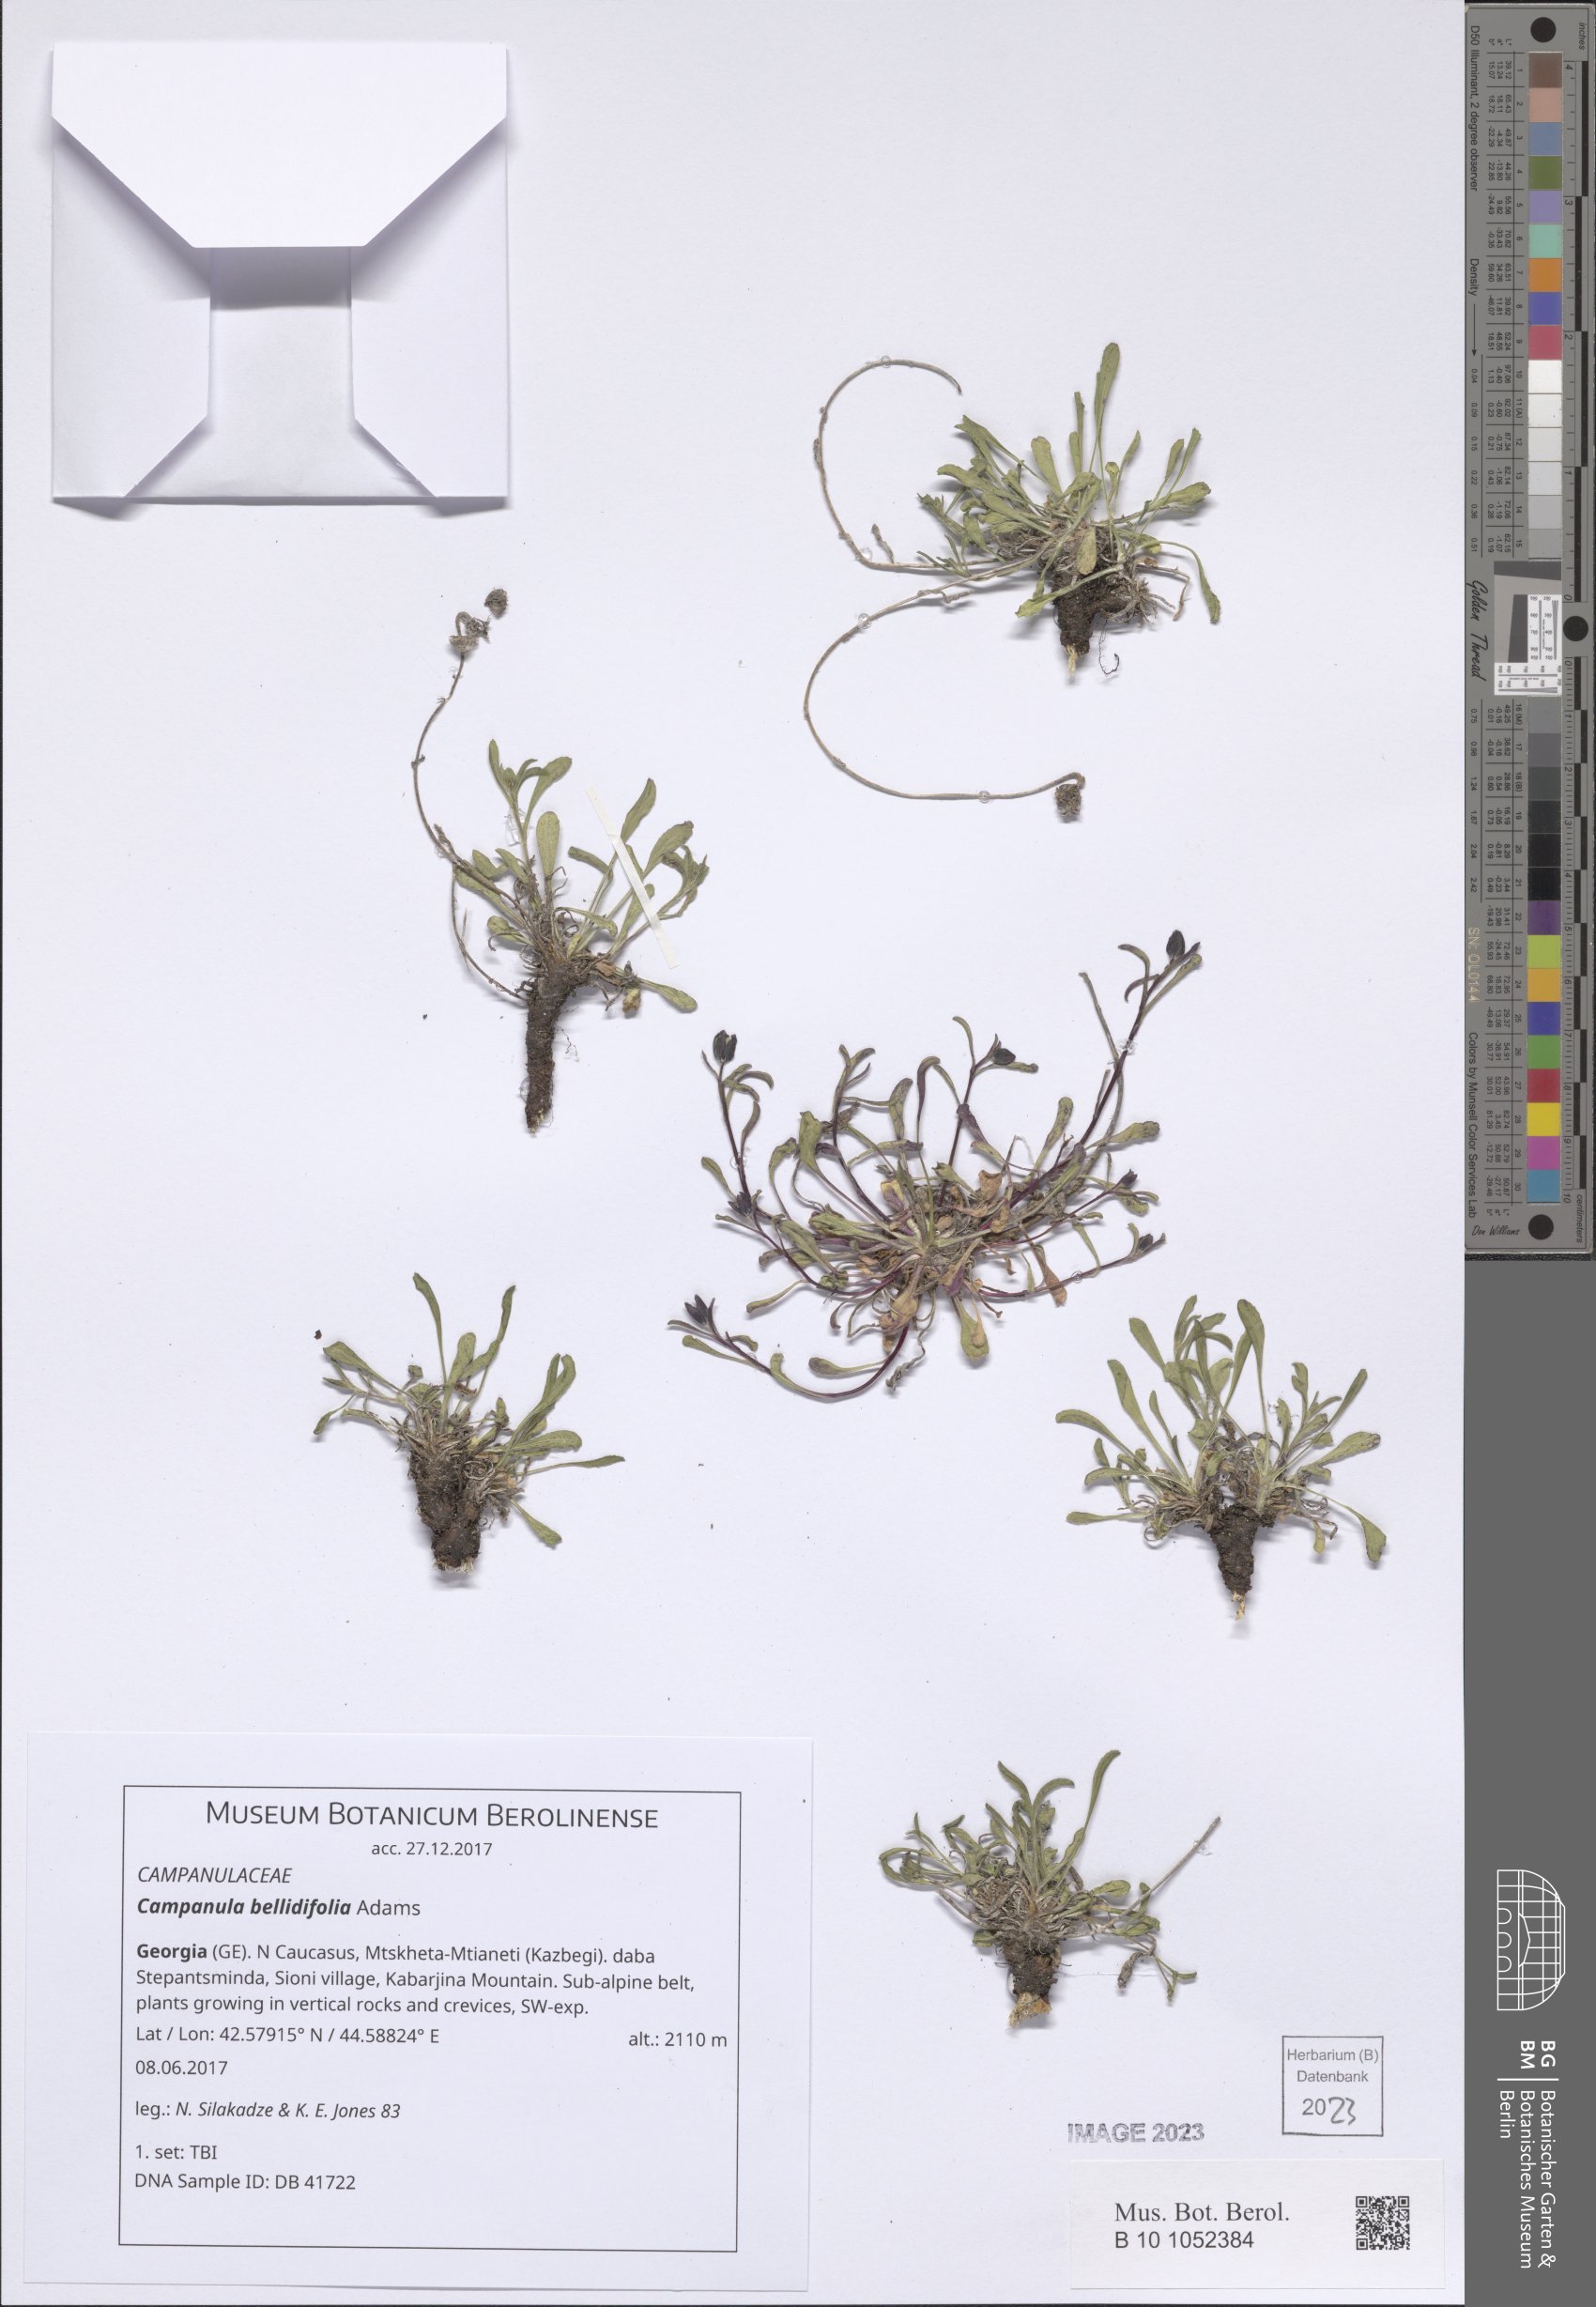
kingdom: Plantae
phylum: Tracheophyta
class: Magnoliopsida
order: Asterales
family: Campanulaceae
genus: Campanula
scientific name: Campanula bellidifolia
